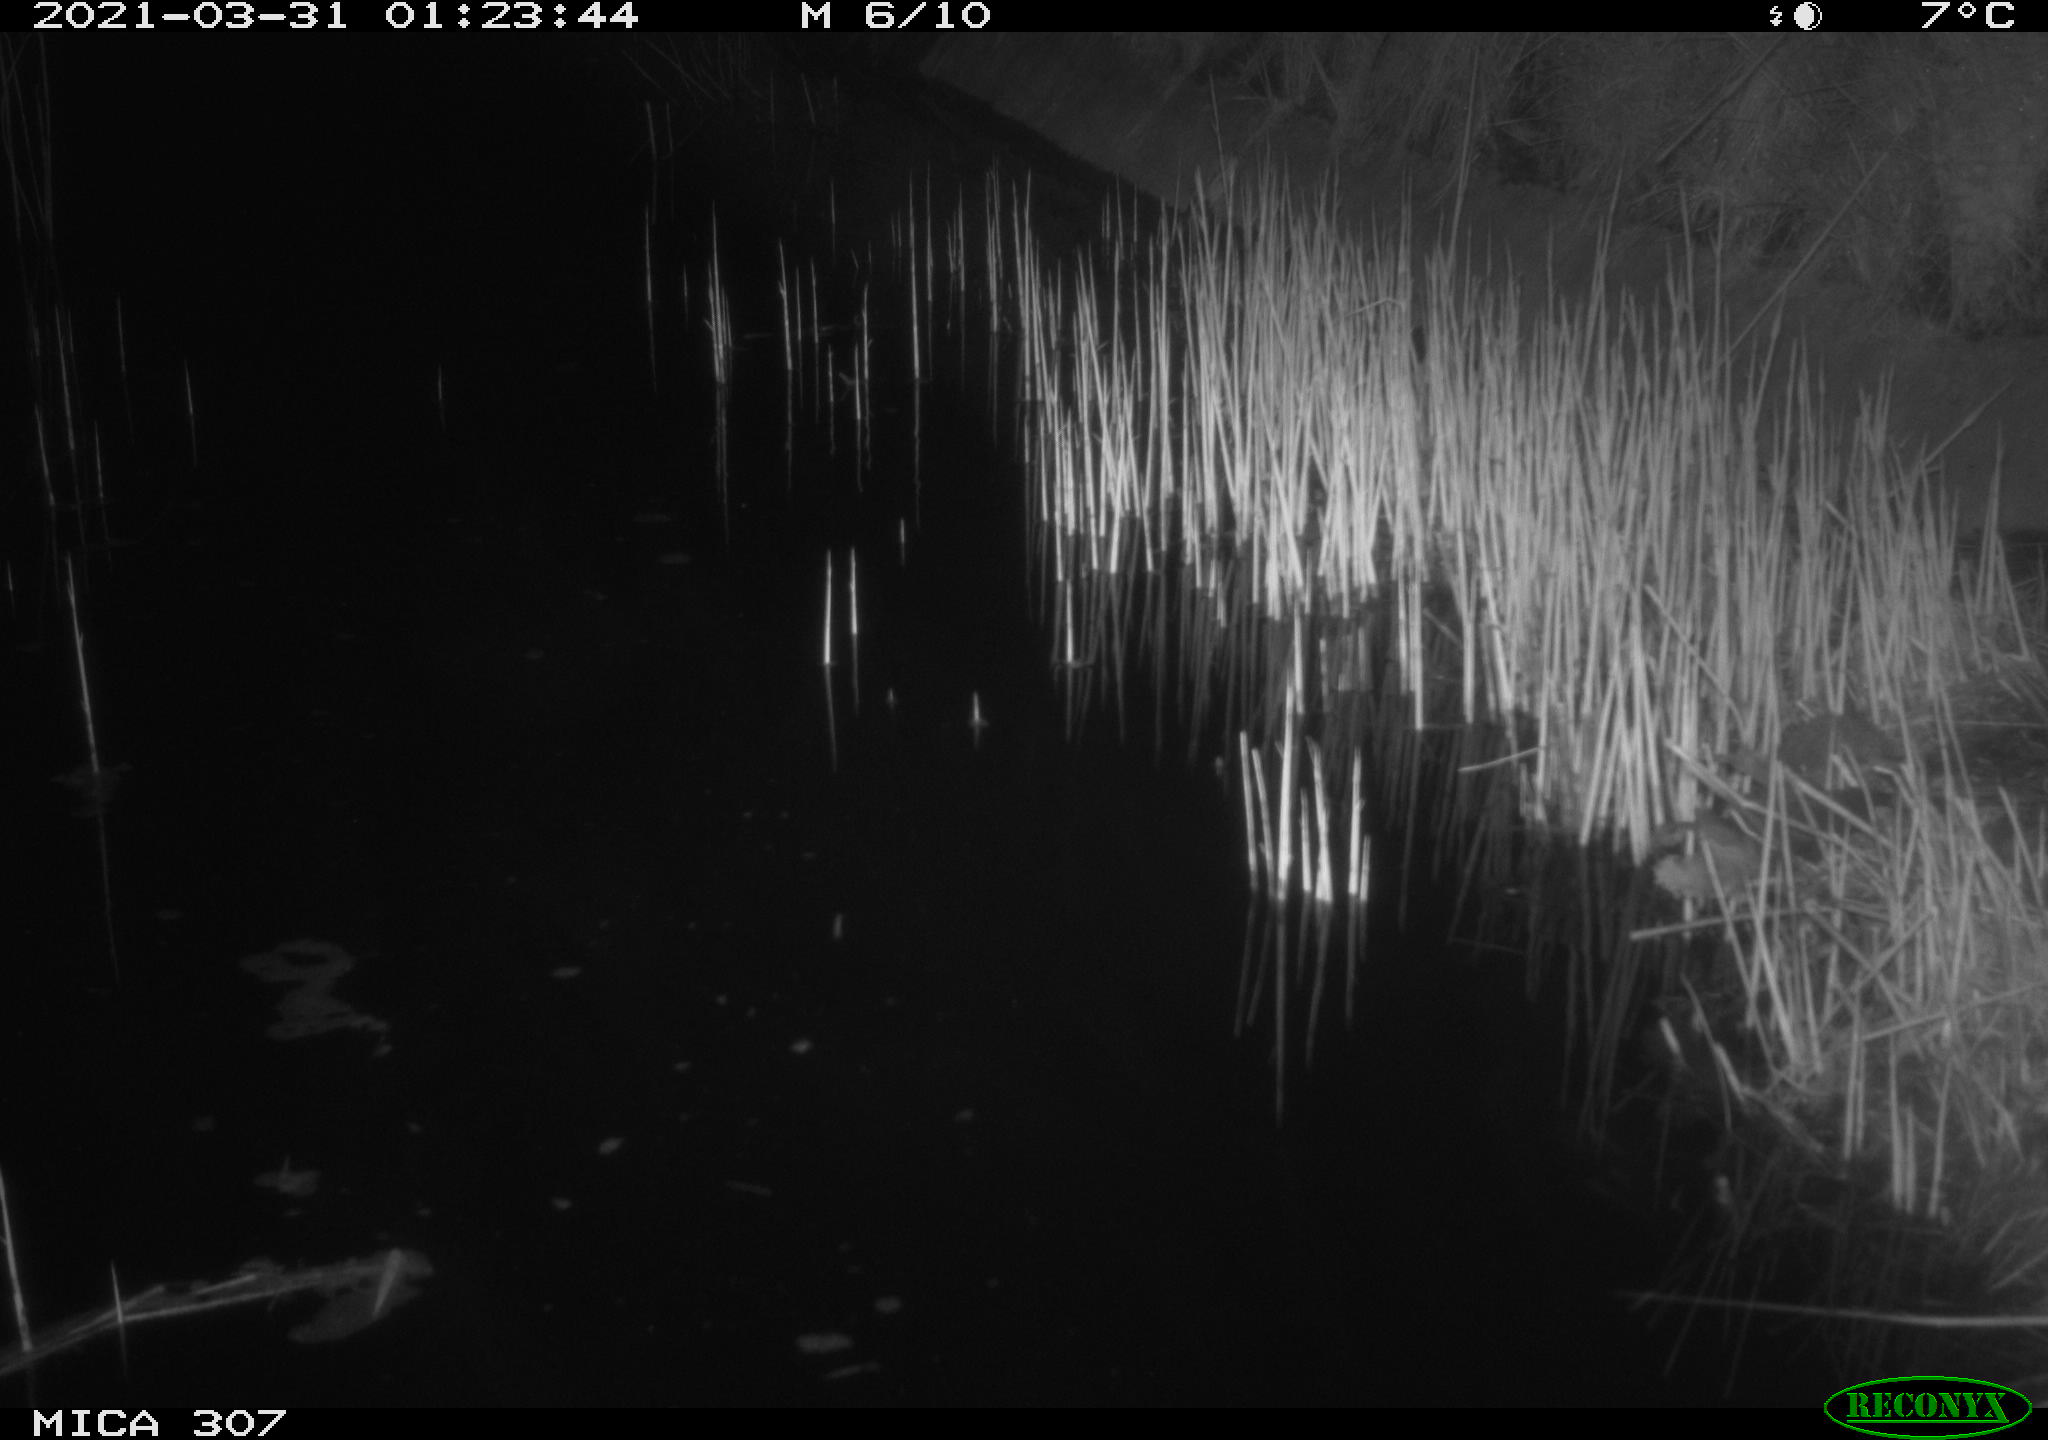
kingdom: Animalia
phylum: Chordata
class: Mammalia
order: Rodentia
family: Muridae
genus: Rattus
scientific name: Rattus norvegicus
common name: Brown rat
